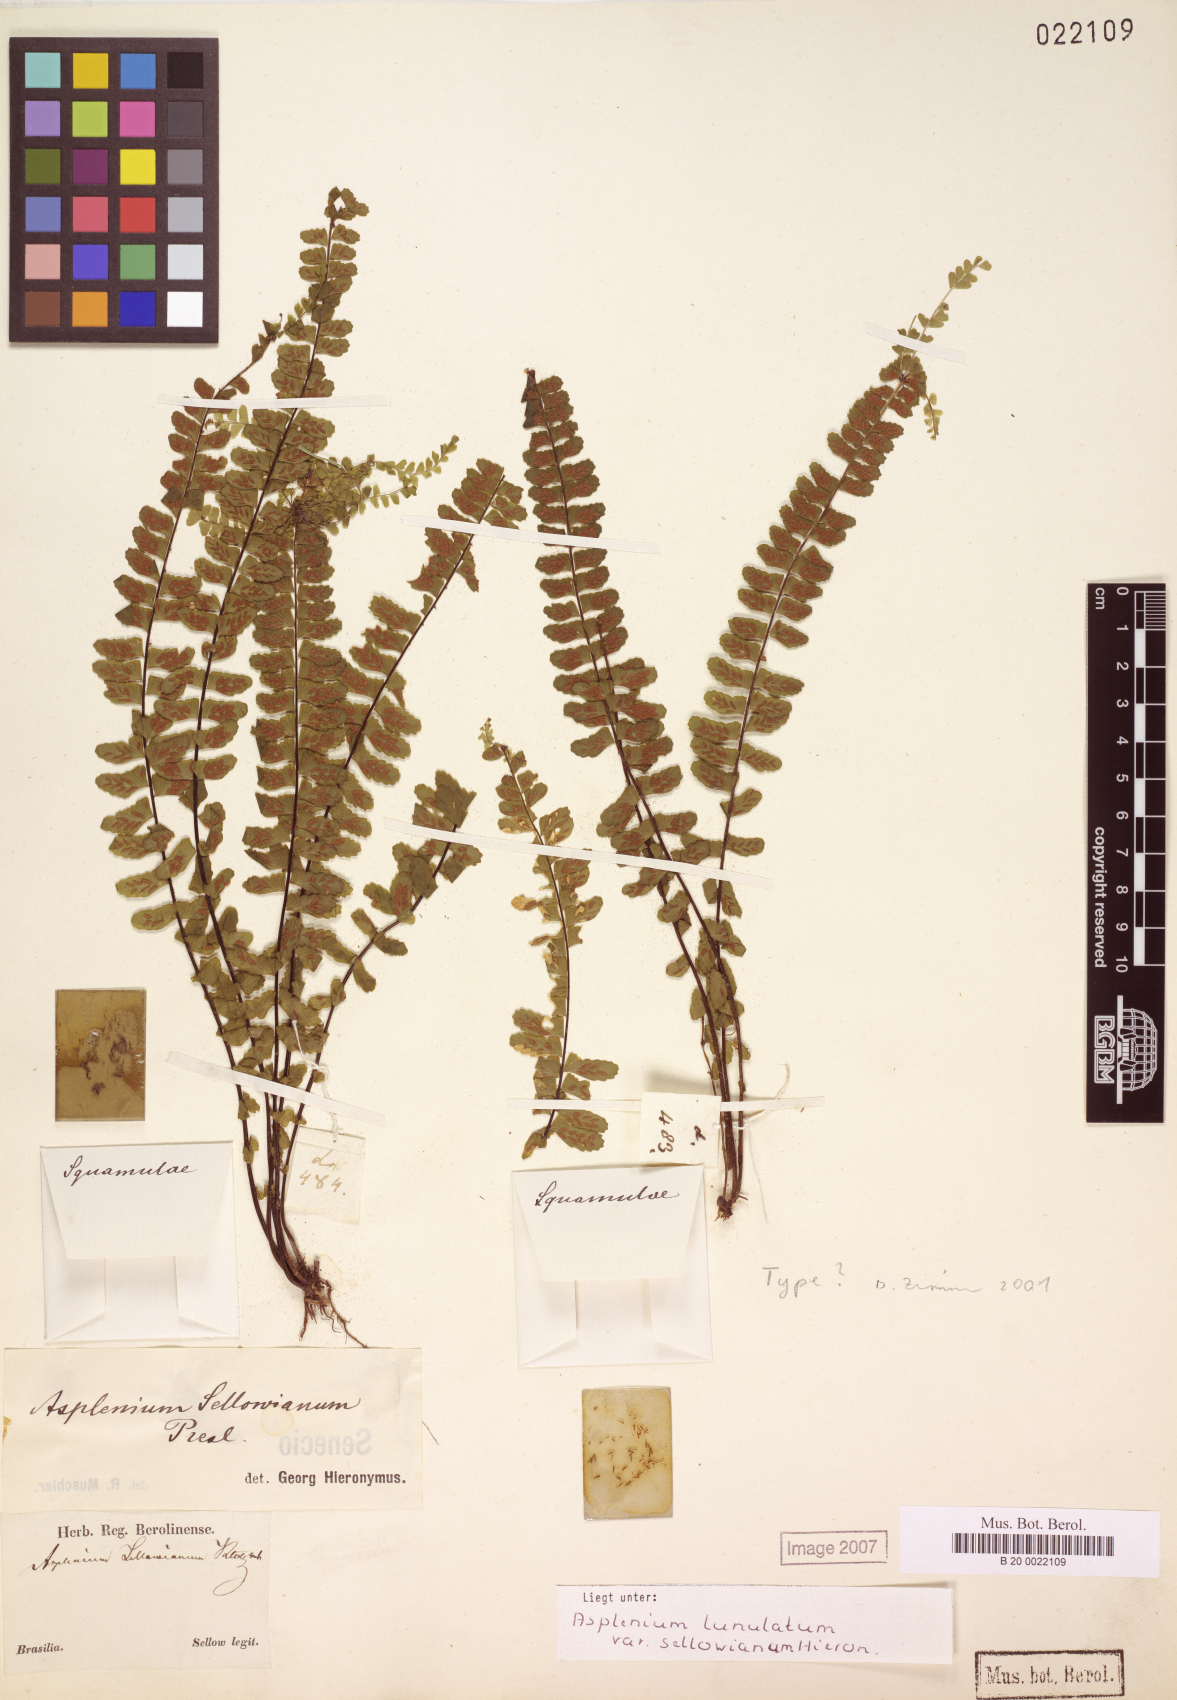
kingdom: Plantae
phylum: Tracheophyta
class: Polypodiopsida
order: Polypodiales
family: Aspleniaceae
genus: Asplenium
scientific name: Asplenium sellowianum
